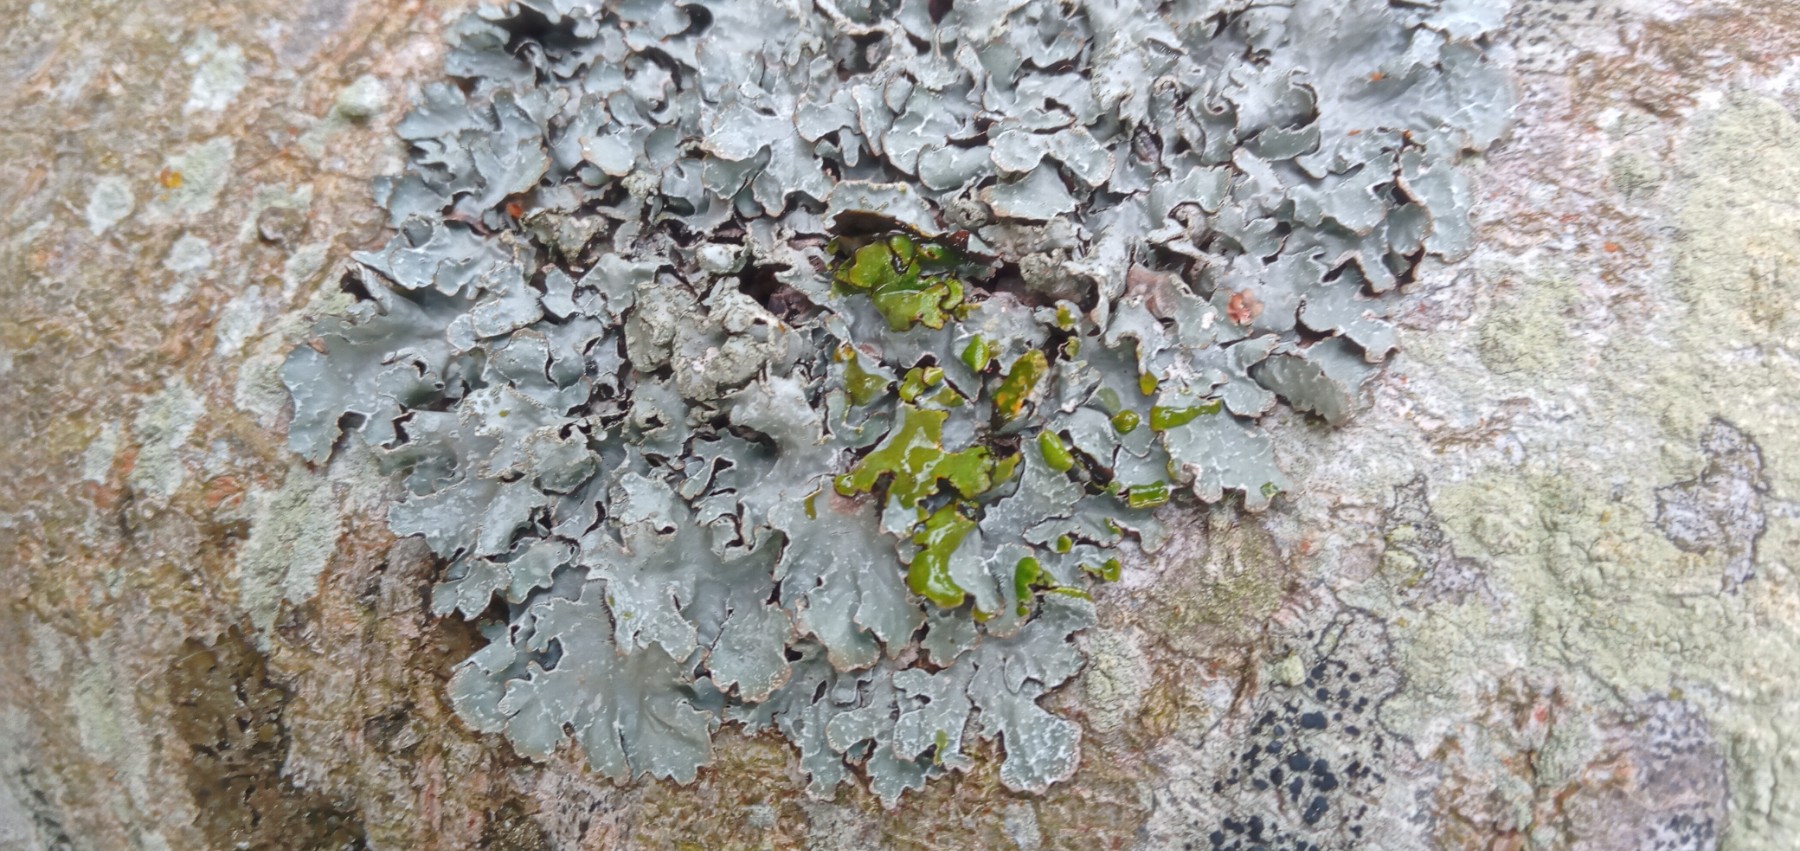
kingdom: Fungi
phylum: Ascomycota
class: Lecanoromycetes
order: Lecanorales
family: Parmeliaceae
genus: Parmelia
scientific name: Parmelia sulcata
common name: rynket skållav
